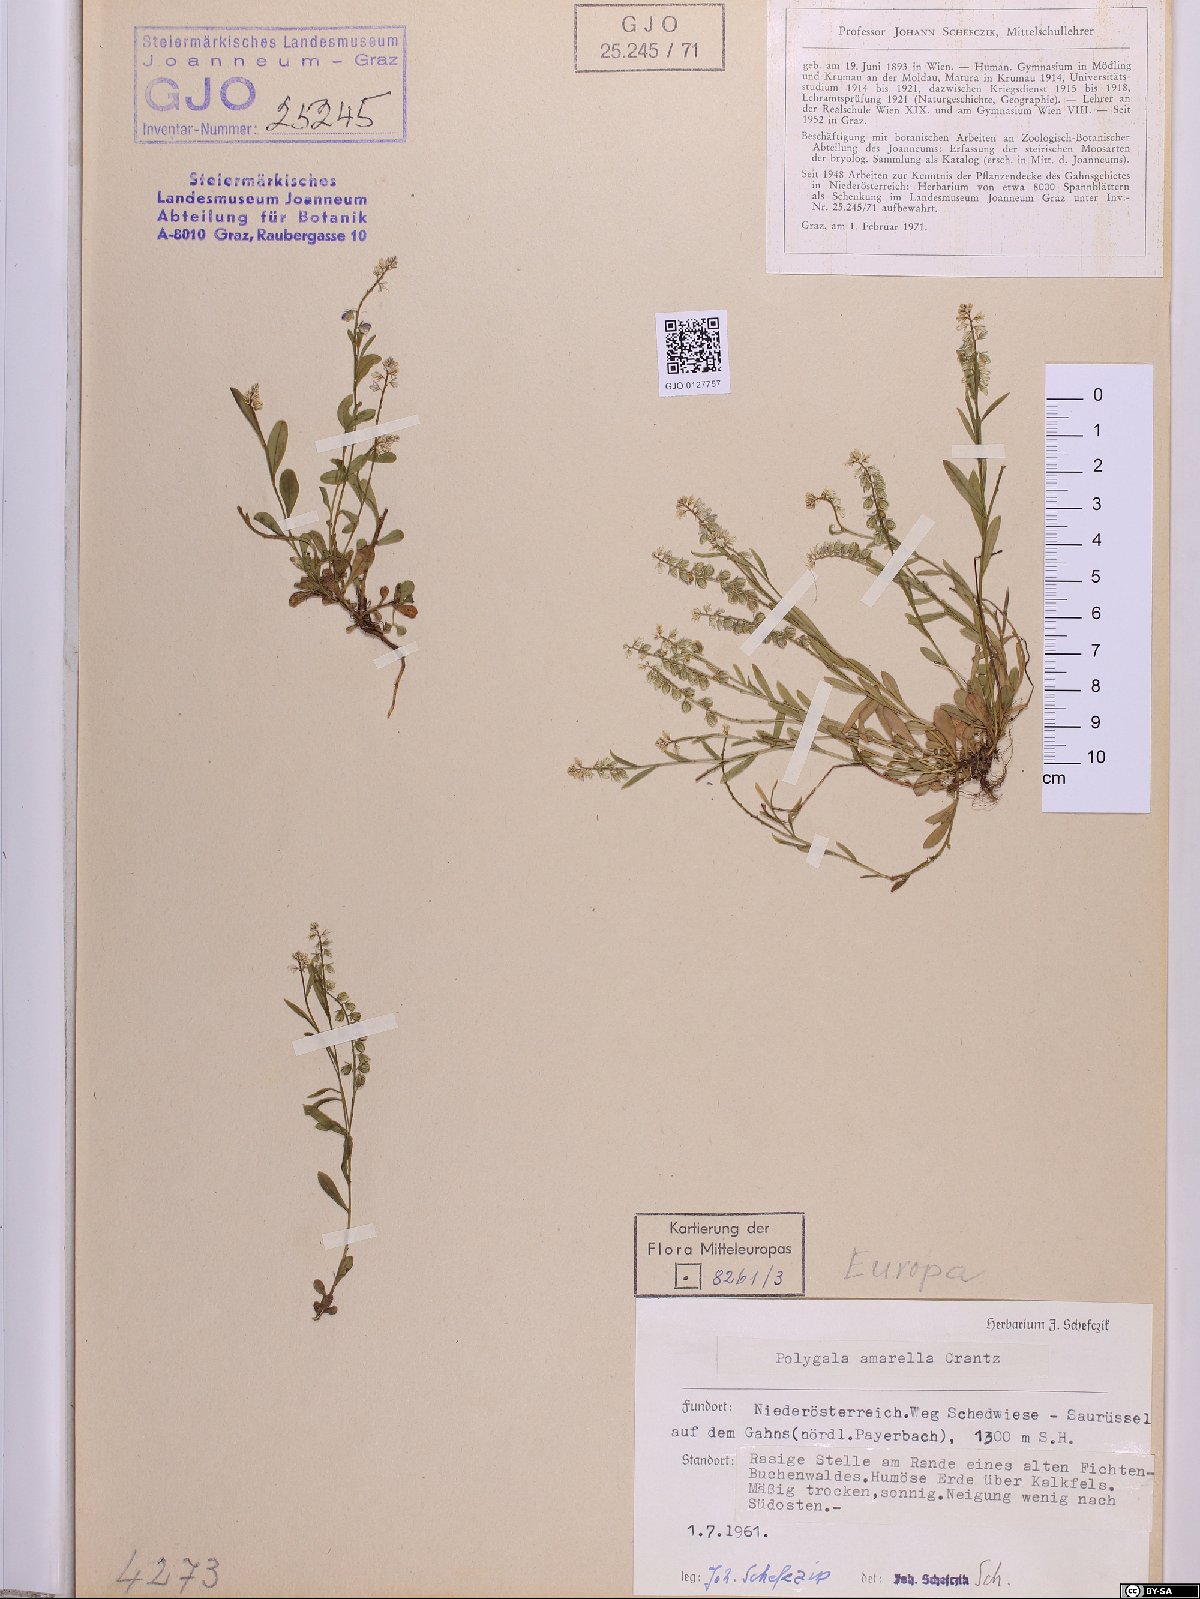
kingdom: Plantae
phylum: Tracheophyta
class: Magnoliopsida
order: Fabales
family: Polygalaceae
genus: Polygala
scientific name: Polygala amarella
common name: Dwarf milkwort
